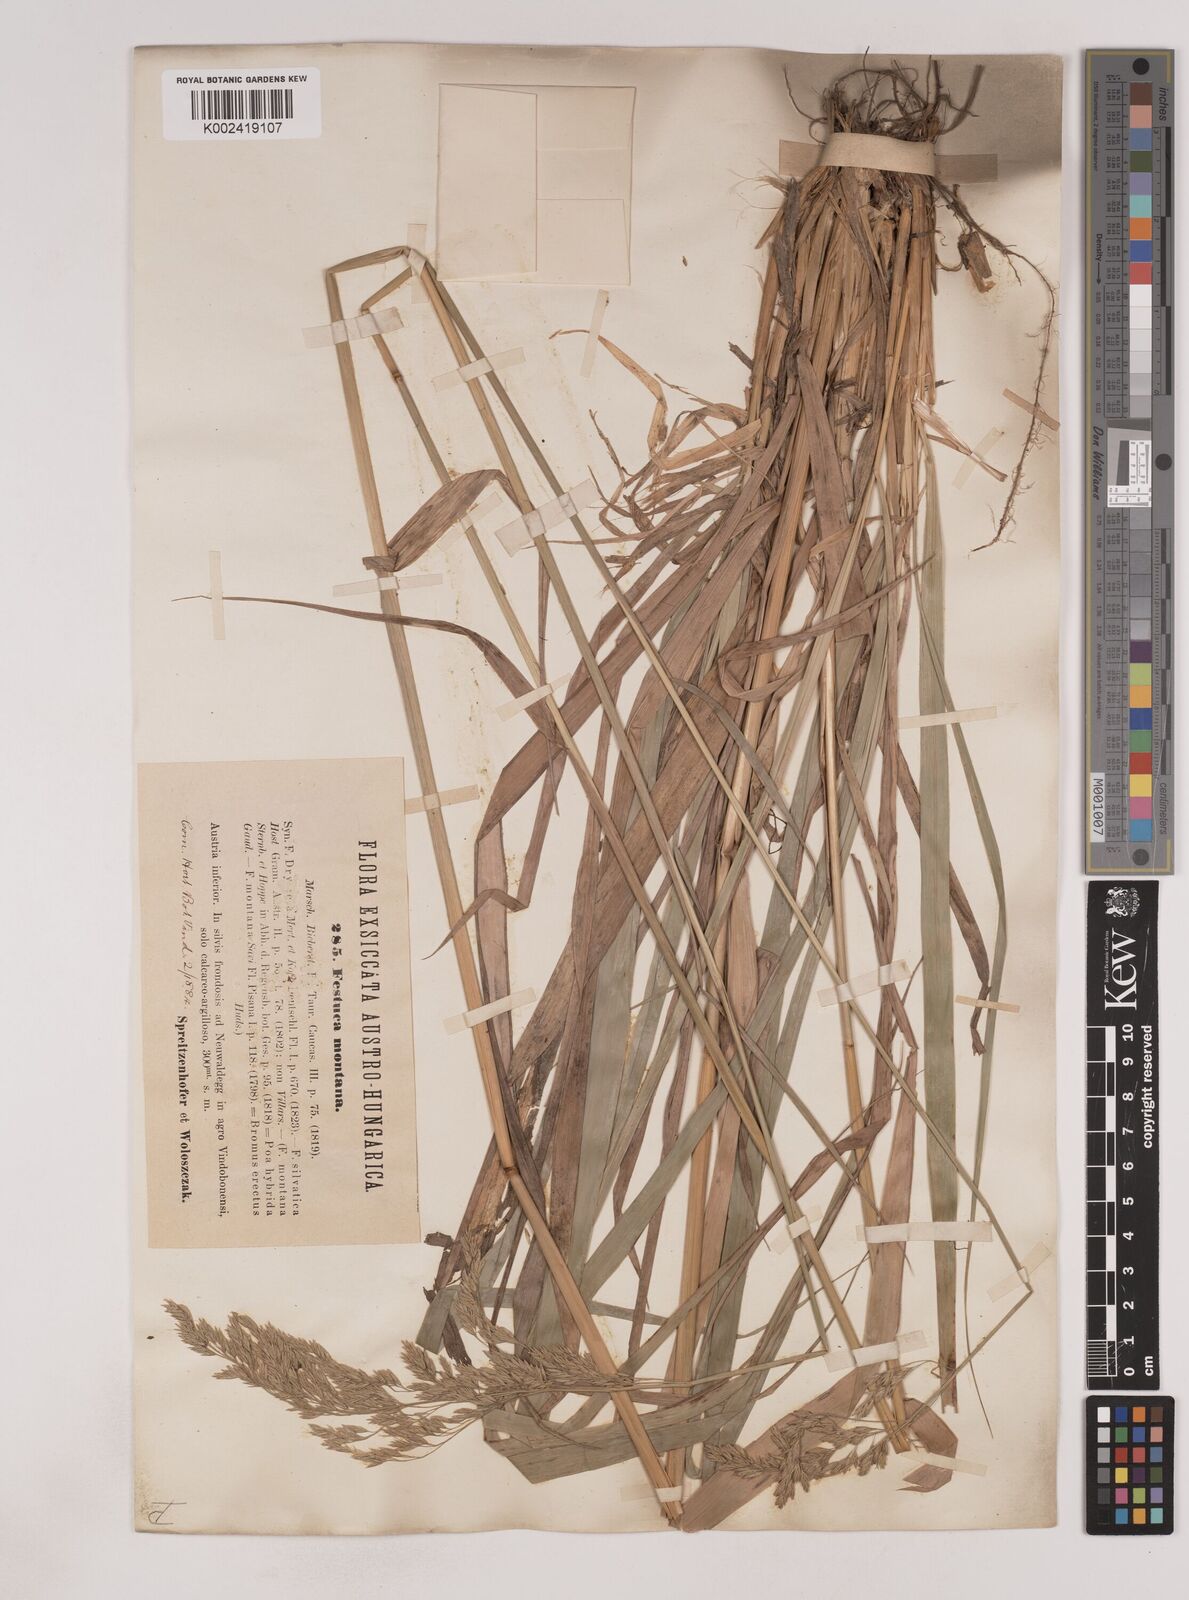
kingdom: Plantae
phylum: Tracheophyta
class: Liliopsida
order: Poales
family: Poaceae
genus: Festuca
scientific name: Festuca drymeja
